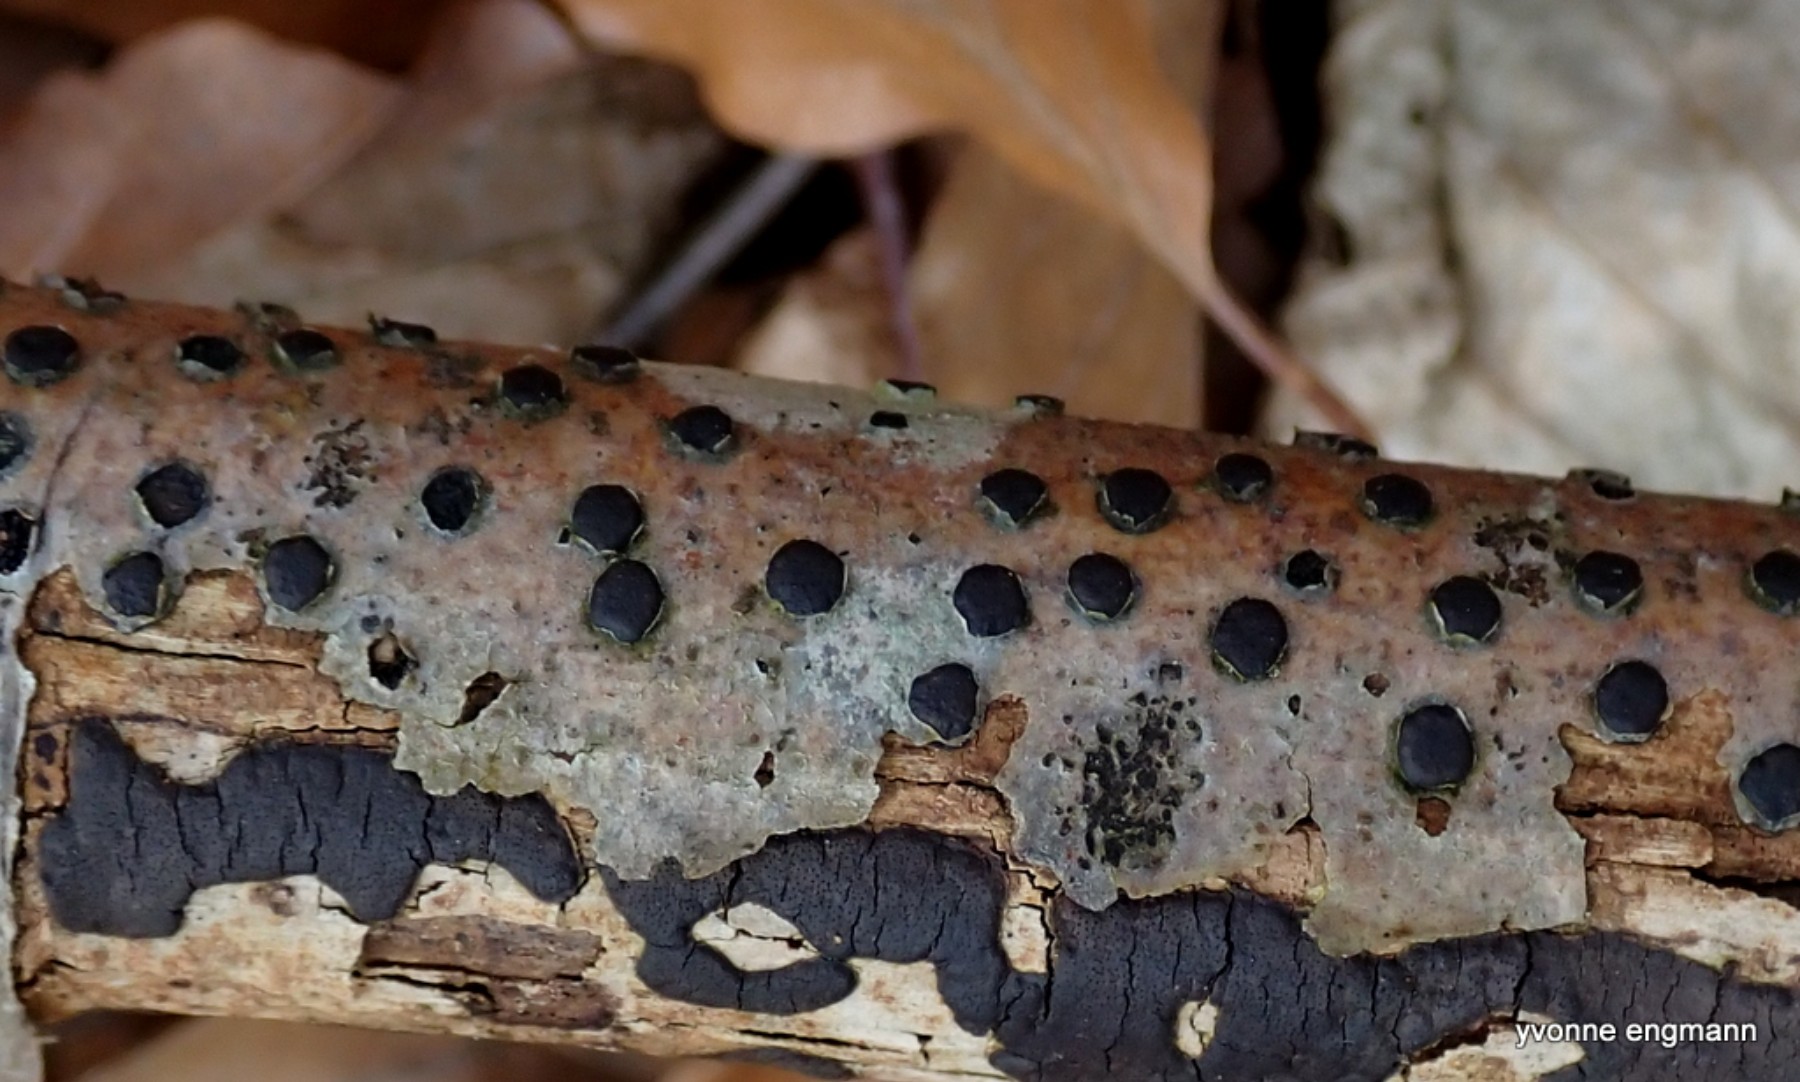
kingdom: Fungi
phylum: Ascomycota
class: Sordariomycetes
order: Xylariales
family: Diatrypaceae
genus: Diatrype
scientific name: Diatrype disciformis
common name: kant-kulskorpe
